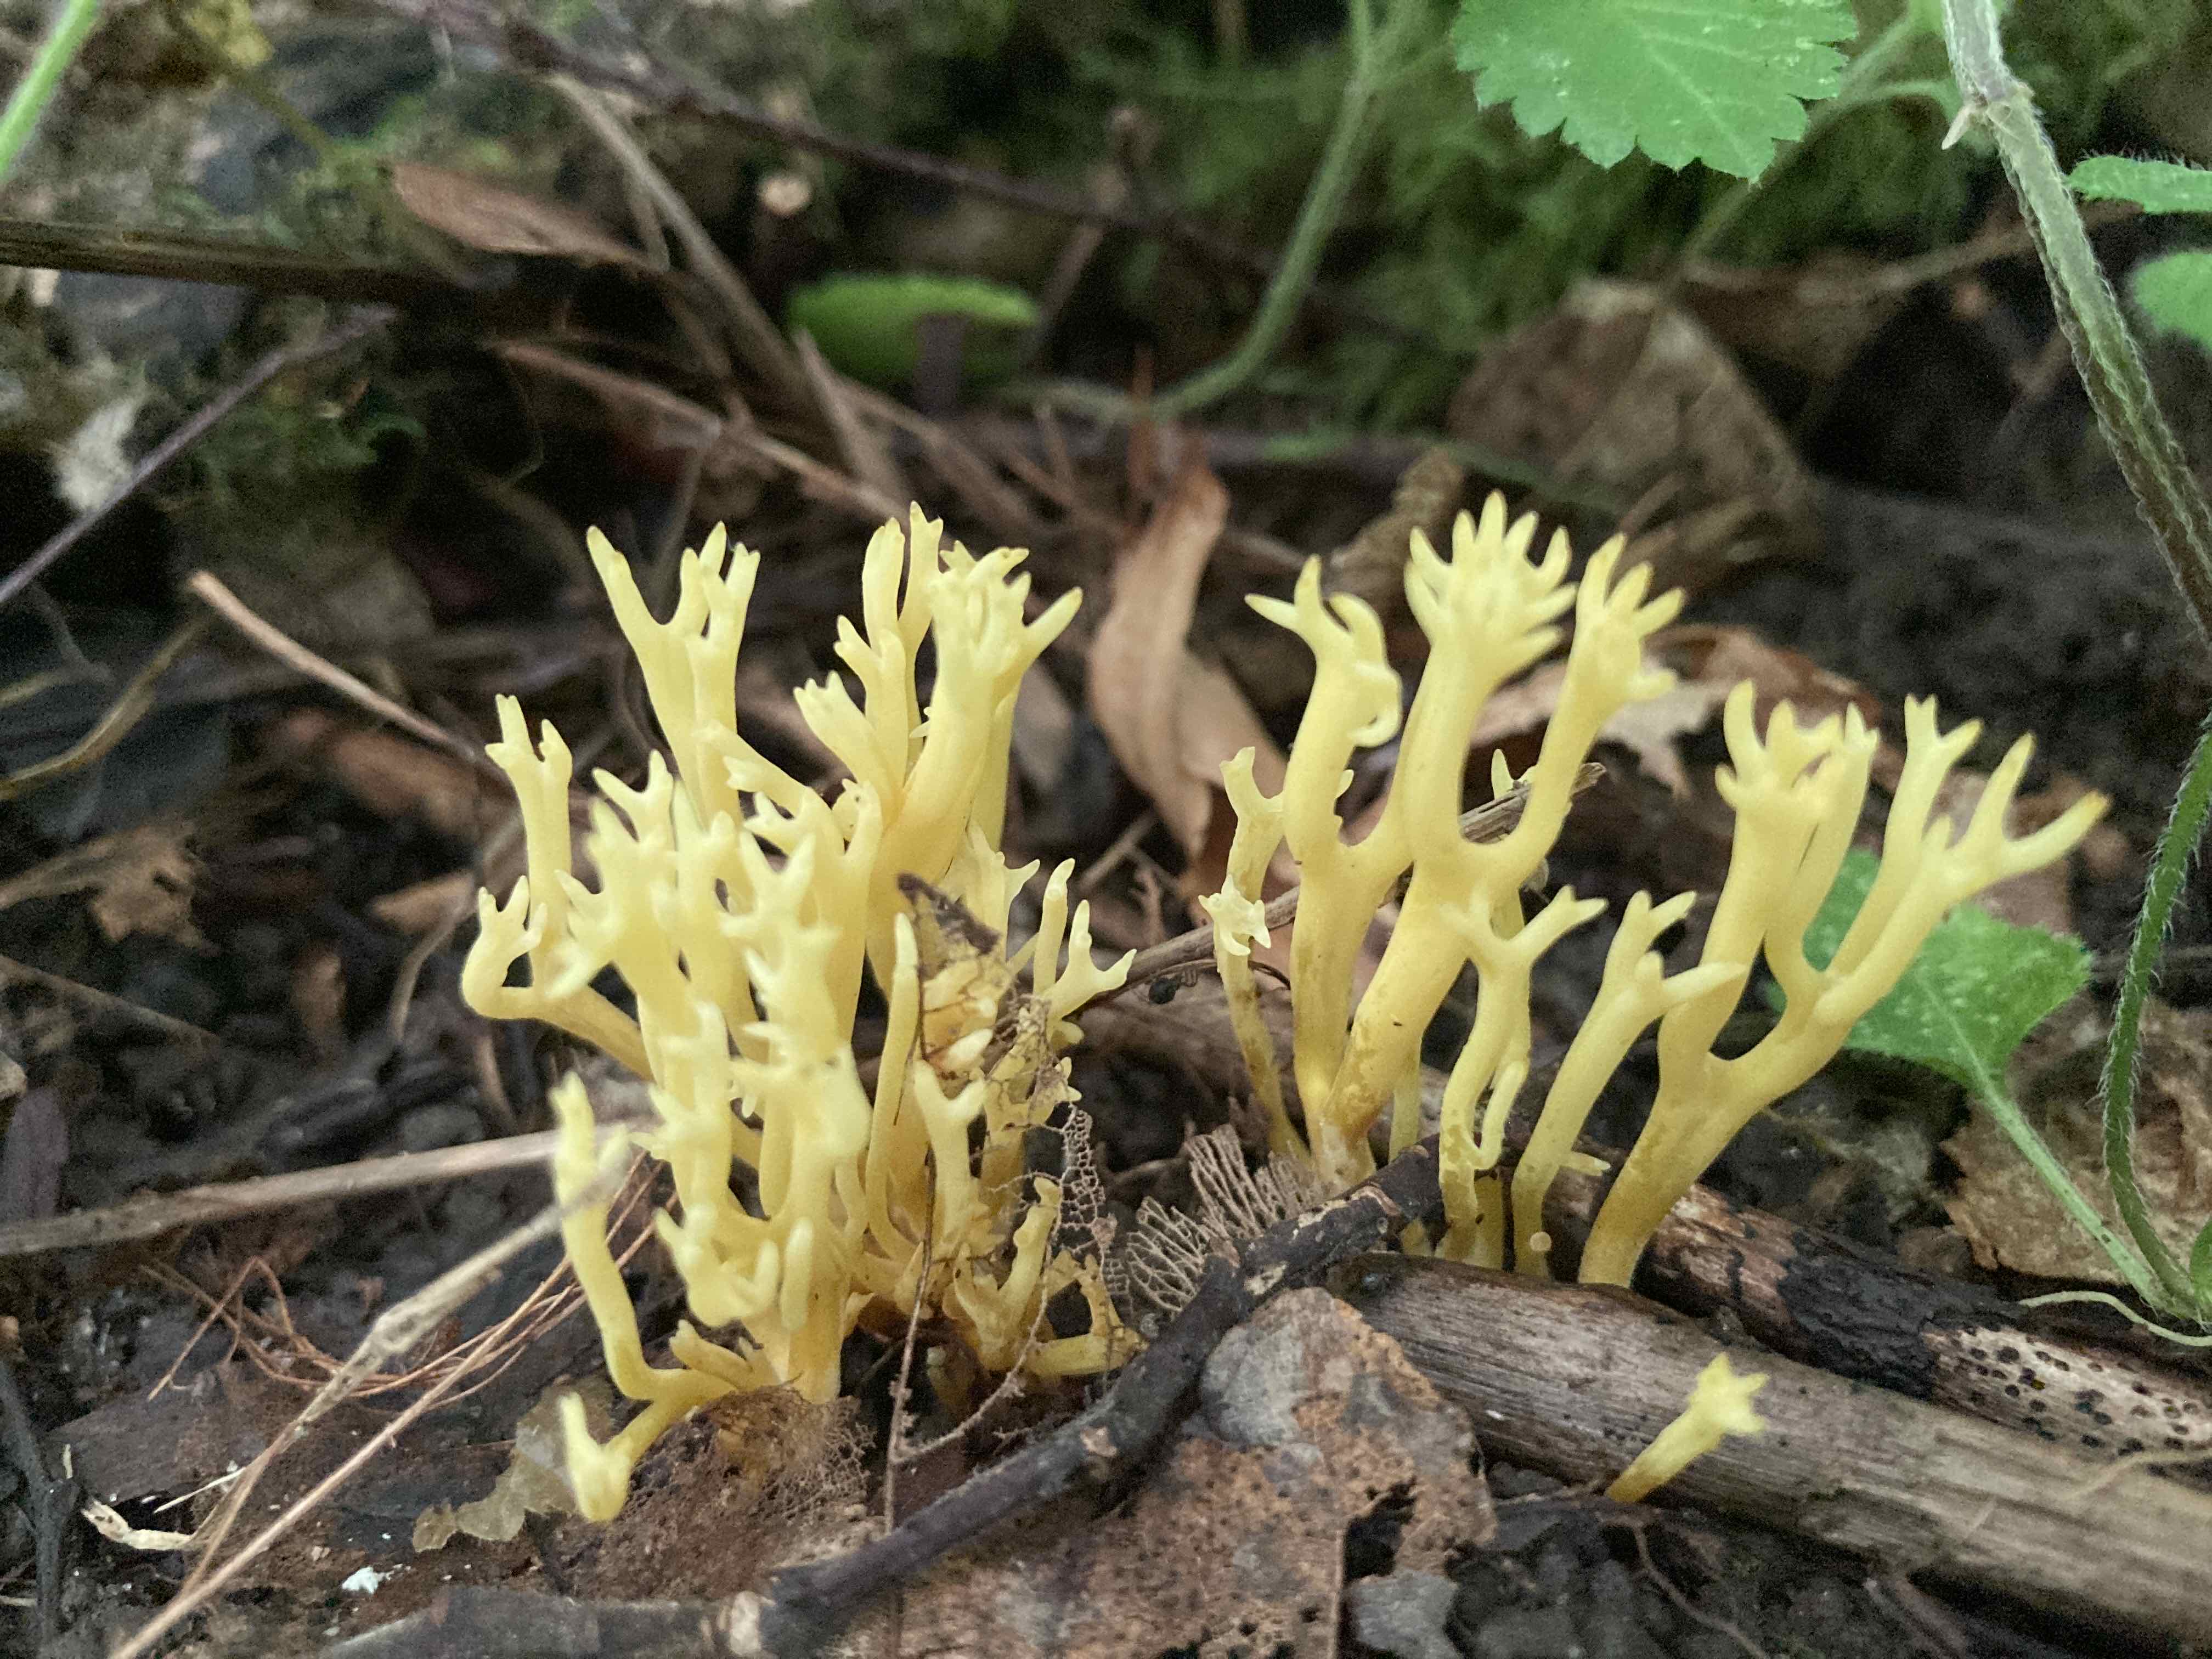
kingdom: Fungi
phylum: Basidiomycota
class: Agaricomycetes
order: Agaricales
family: Clavariaceae
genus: Clavulinopsis
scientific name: Clavulinopsis corniculata
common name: eng-køllesvamp
